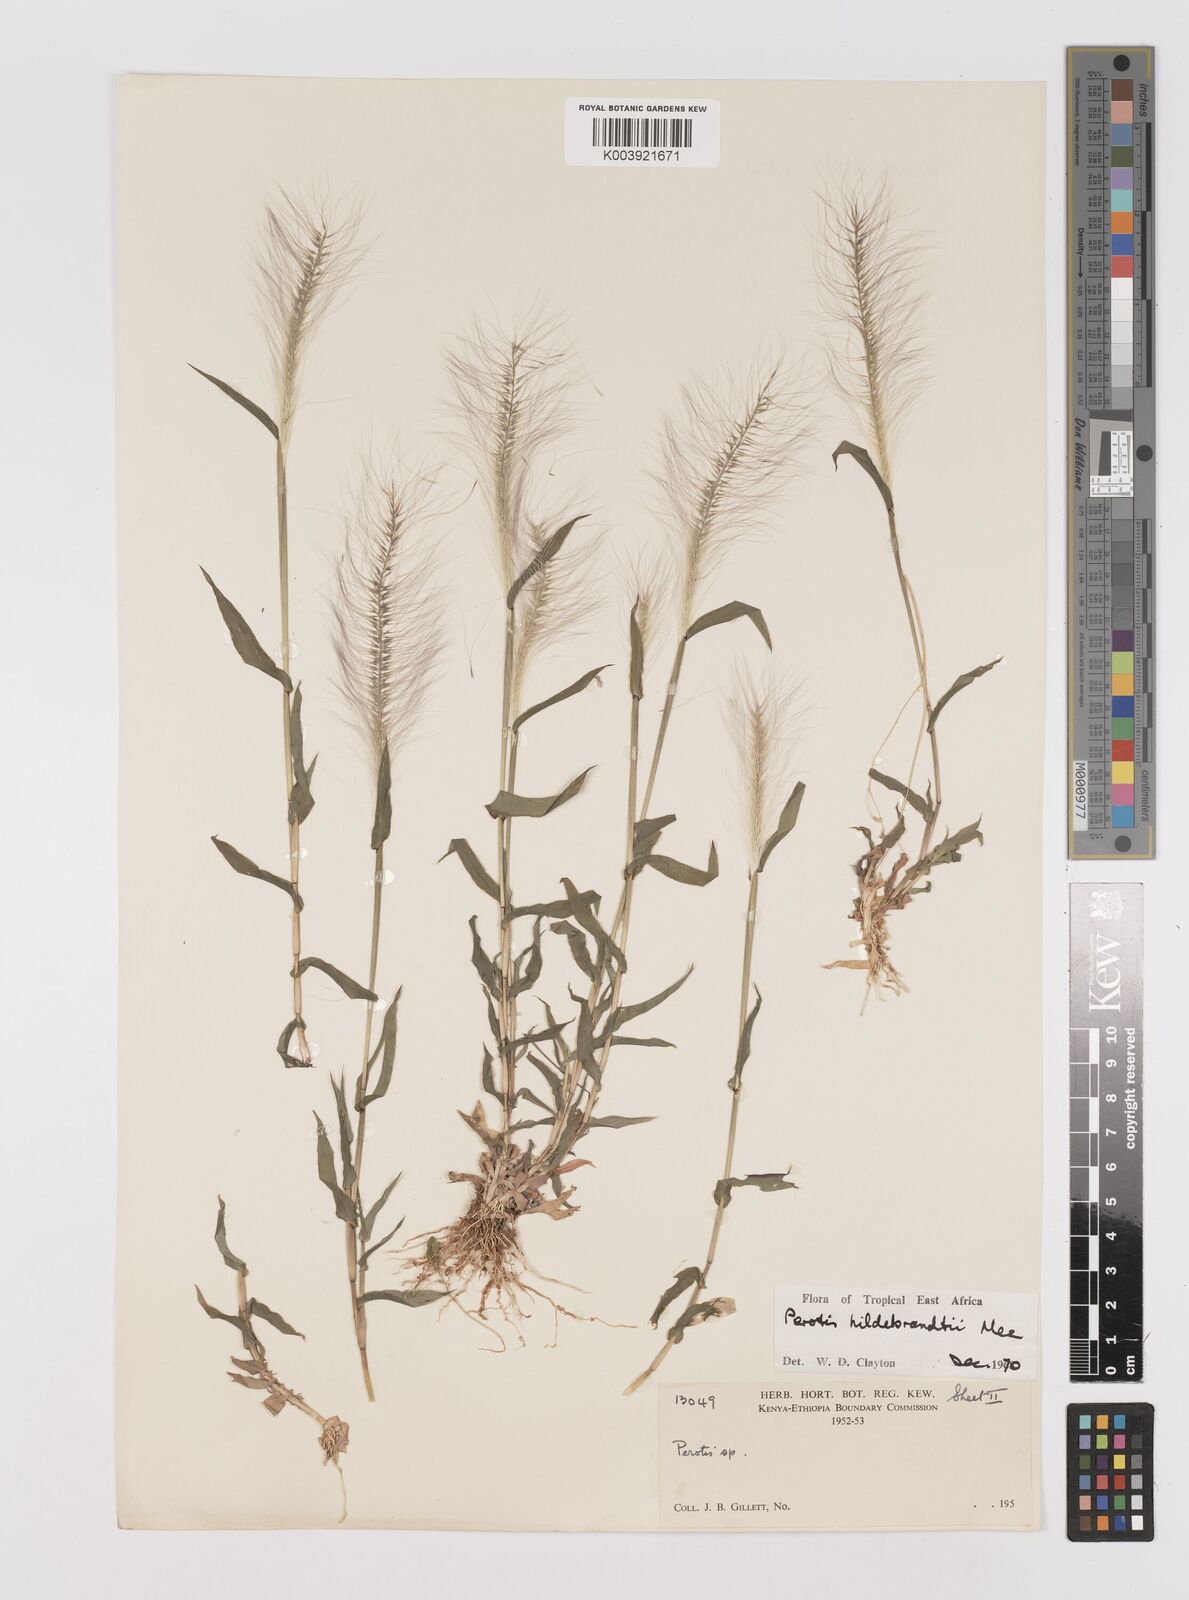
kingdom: Plantae
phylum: Tracheophyta
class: Liliopsida
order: Poales
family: Poaceae
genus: Perotis
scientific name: Perotis hildebrandtii
